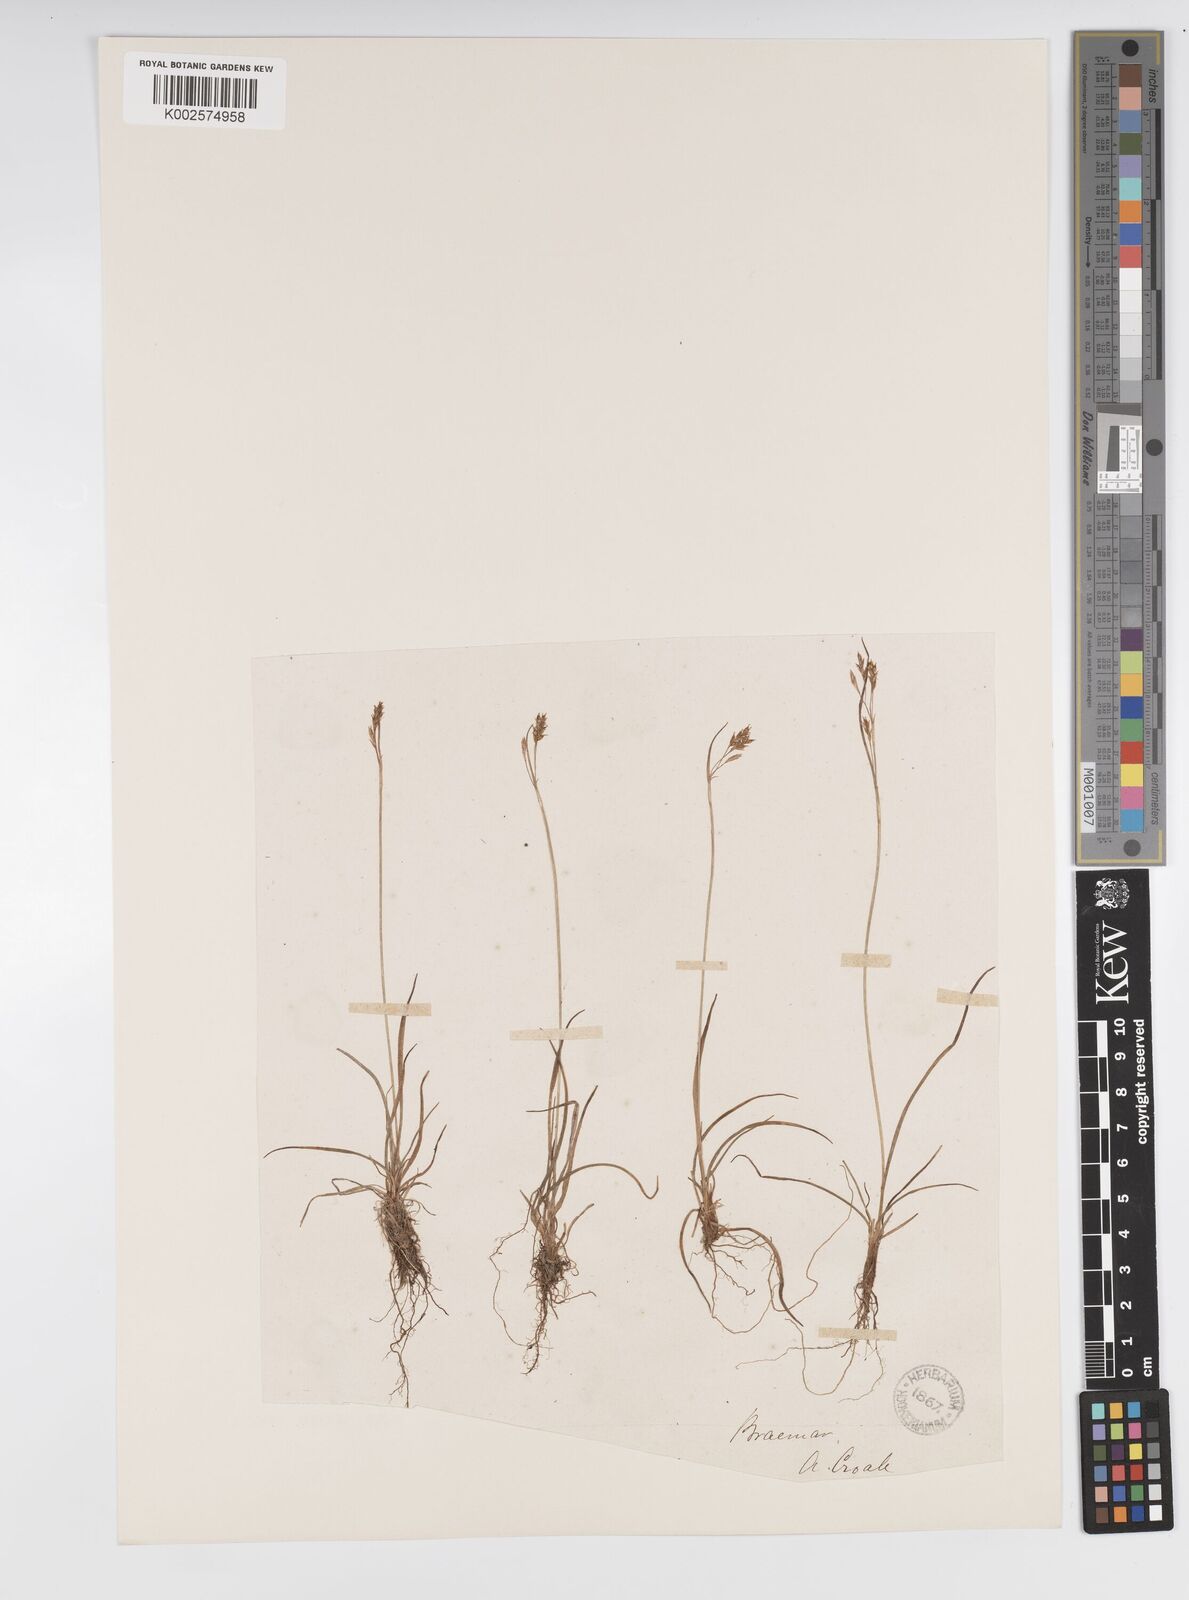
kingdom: Plantae
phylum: Tracheophyta
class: Liliopsida
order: Poales
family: Cyperaceae
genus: Carex
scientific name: Carex capillaris
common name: Hair sedge
